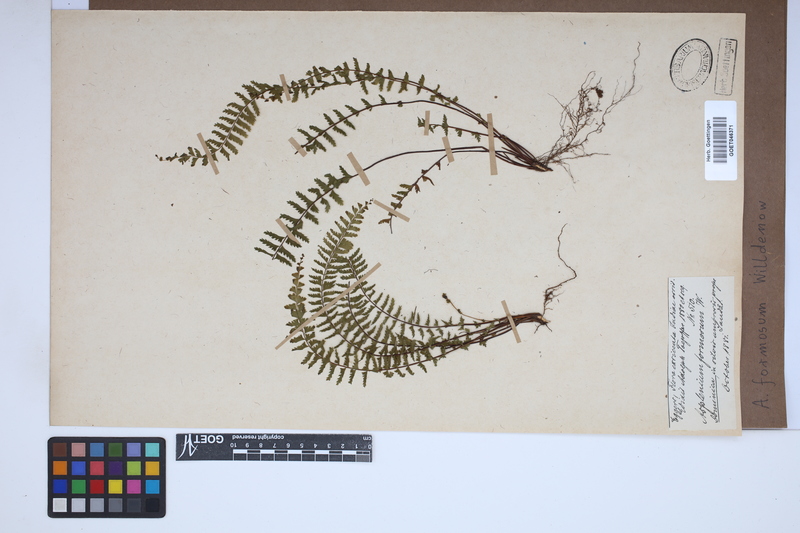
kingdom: Plantae
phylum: Tracheophyta
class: Polypodiopsida
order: Polypodiales
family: Aspleniaceae
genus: Asplenium
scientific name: Asplenium formosum
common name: Showy spleenwort
